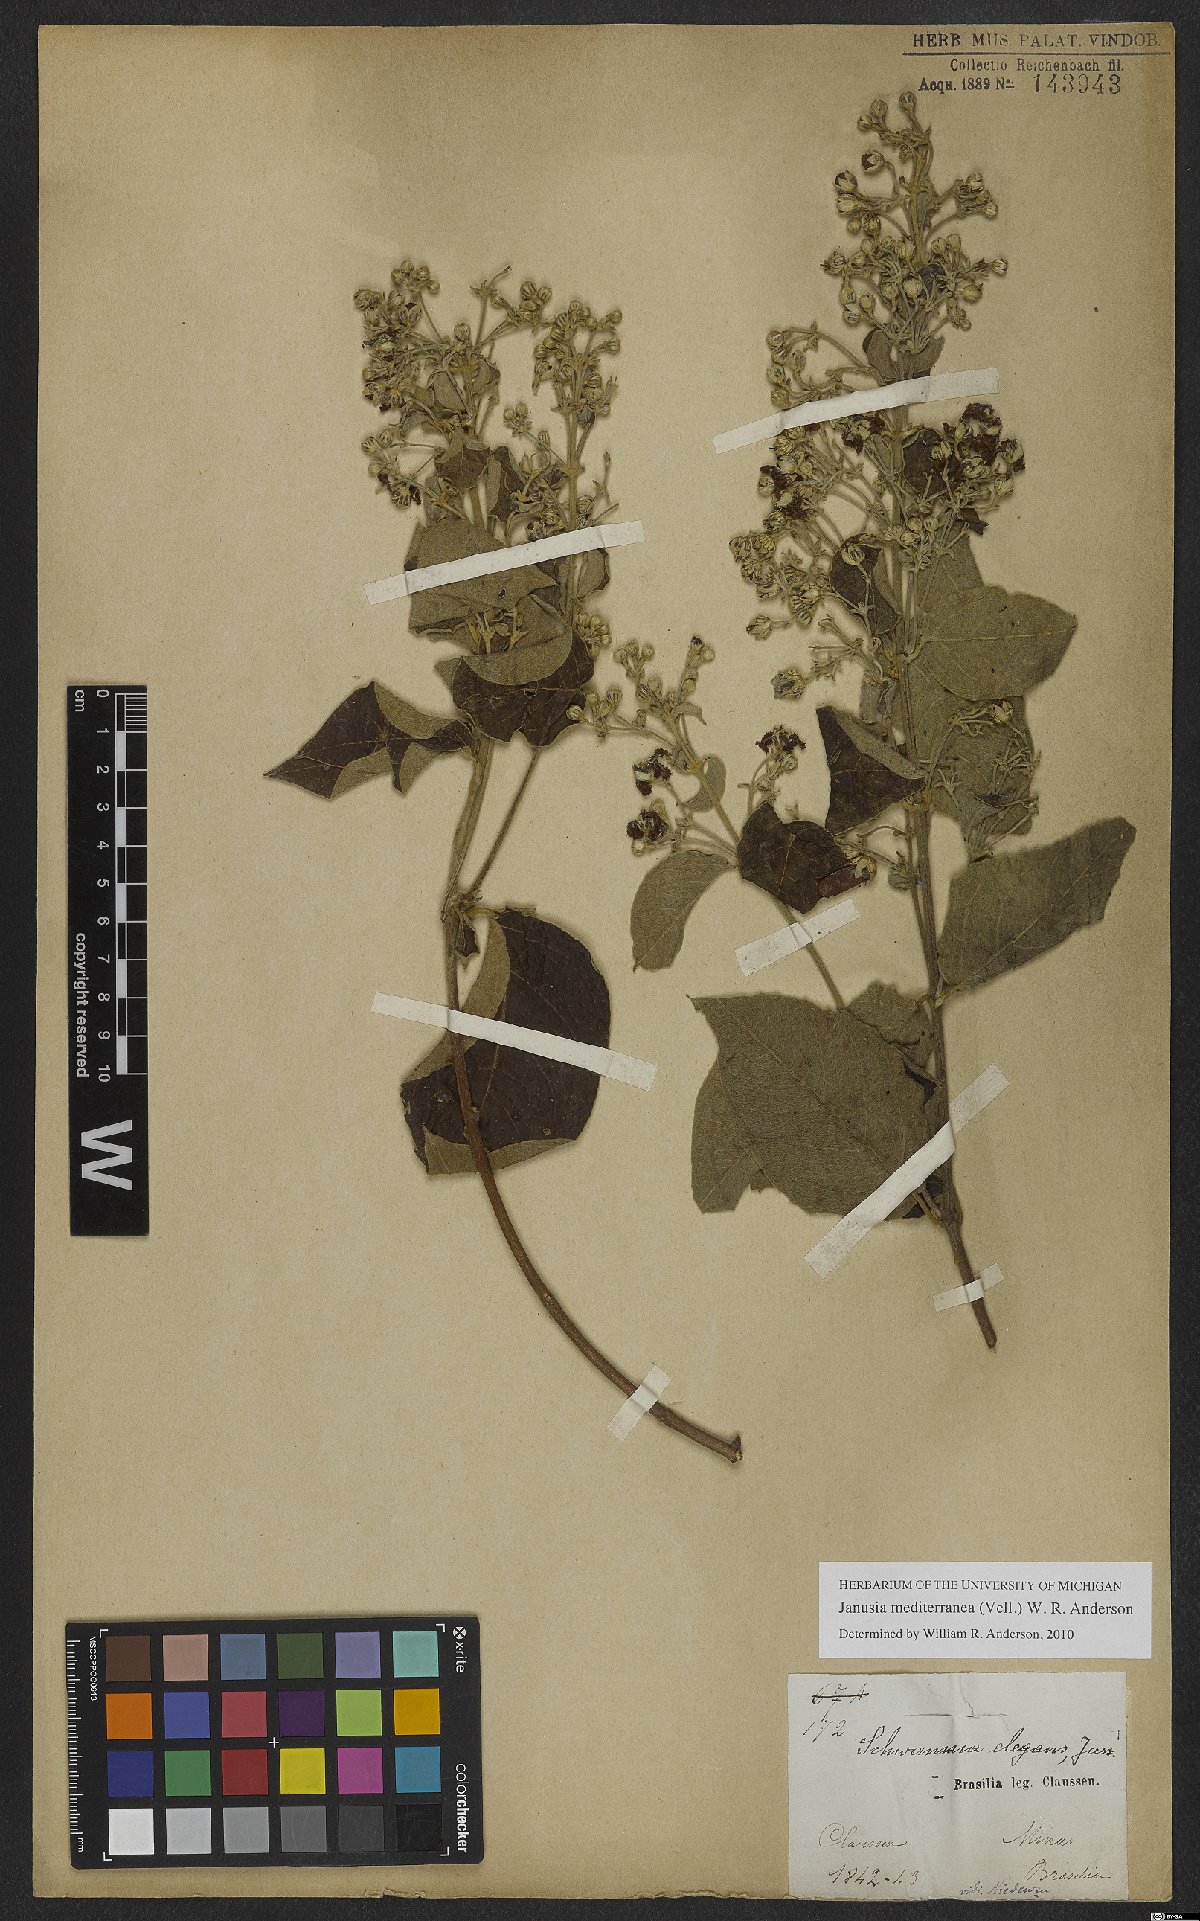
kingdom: Plantae
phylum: Tracheophyta
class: Magnoliopsida
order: Malpighiales
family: Malpighiaceae
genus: Janusia
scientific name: Janusia mediterranea
